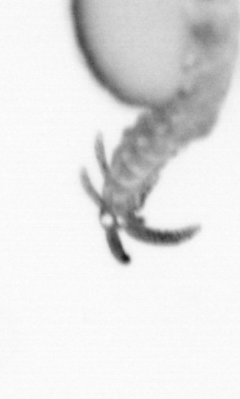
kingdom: Animalia
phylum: Annelida
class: Polychaeta
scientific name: Polychaeta
